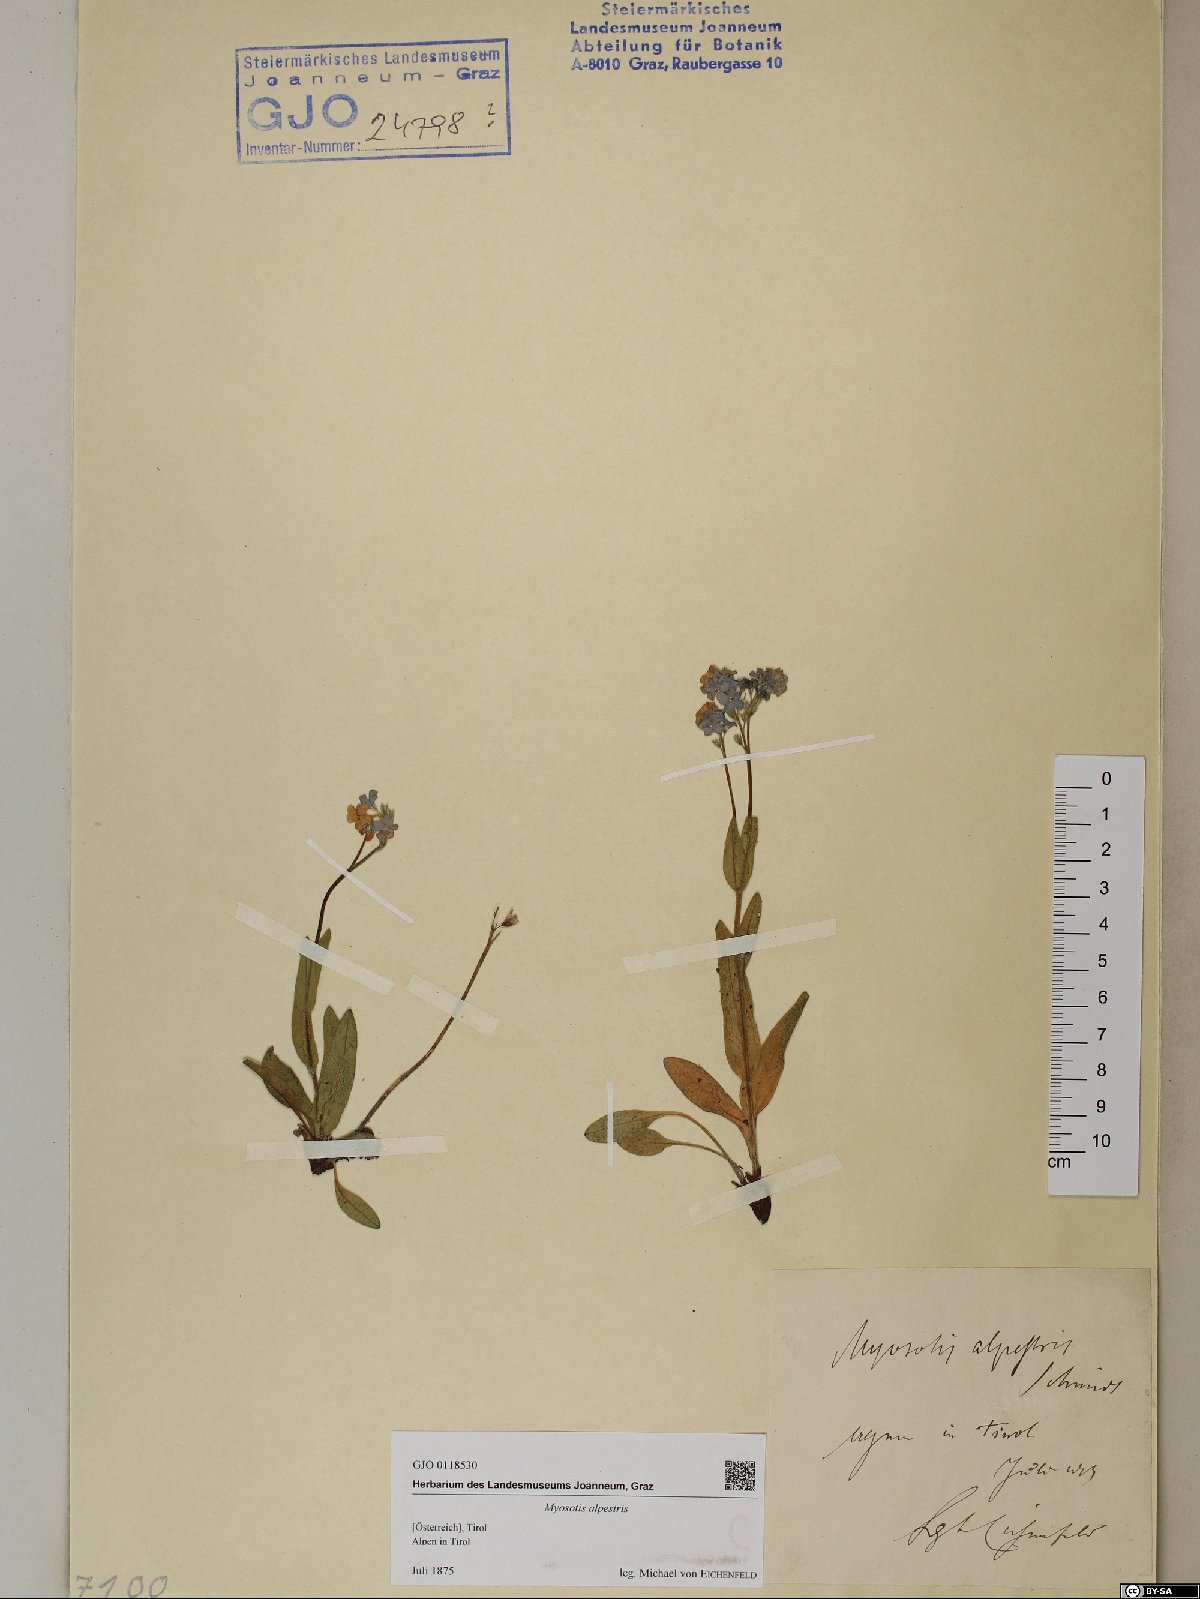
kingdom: Plantae
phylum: Tracheophyta
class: Magnoliopsida
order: Boraginales
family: Boraginaceae
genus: Myosotis
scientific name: Myosotis alpestris
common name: Alpine forget-me-not
